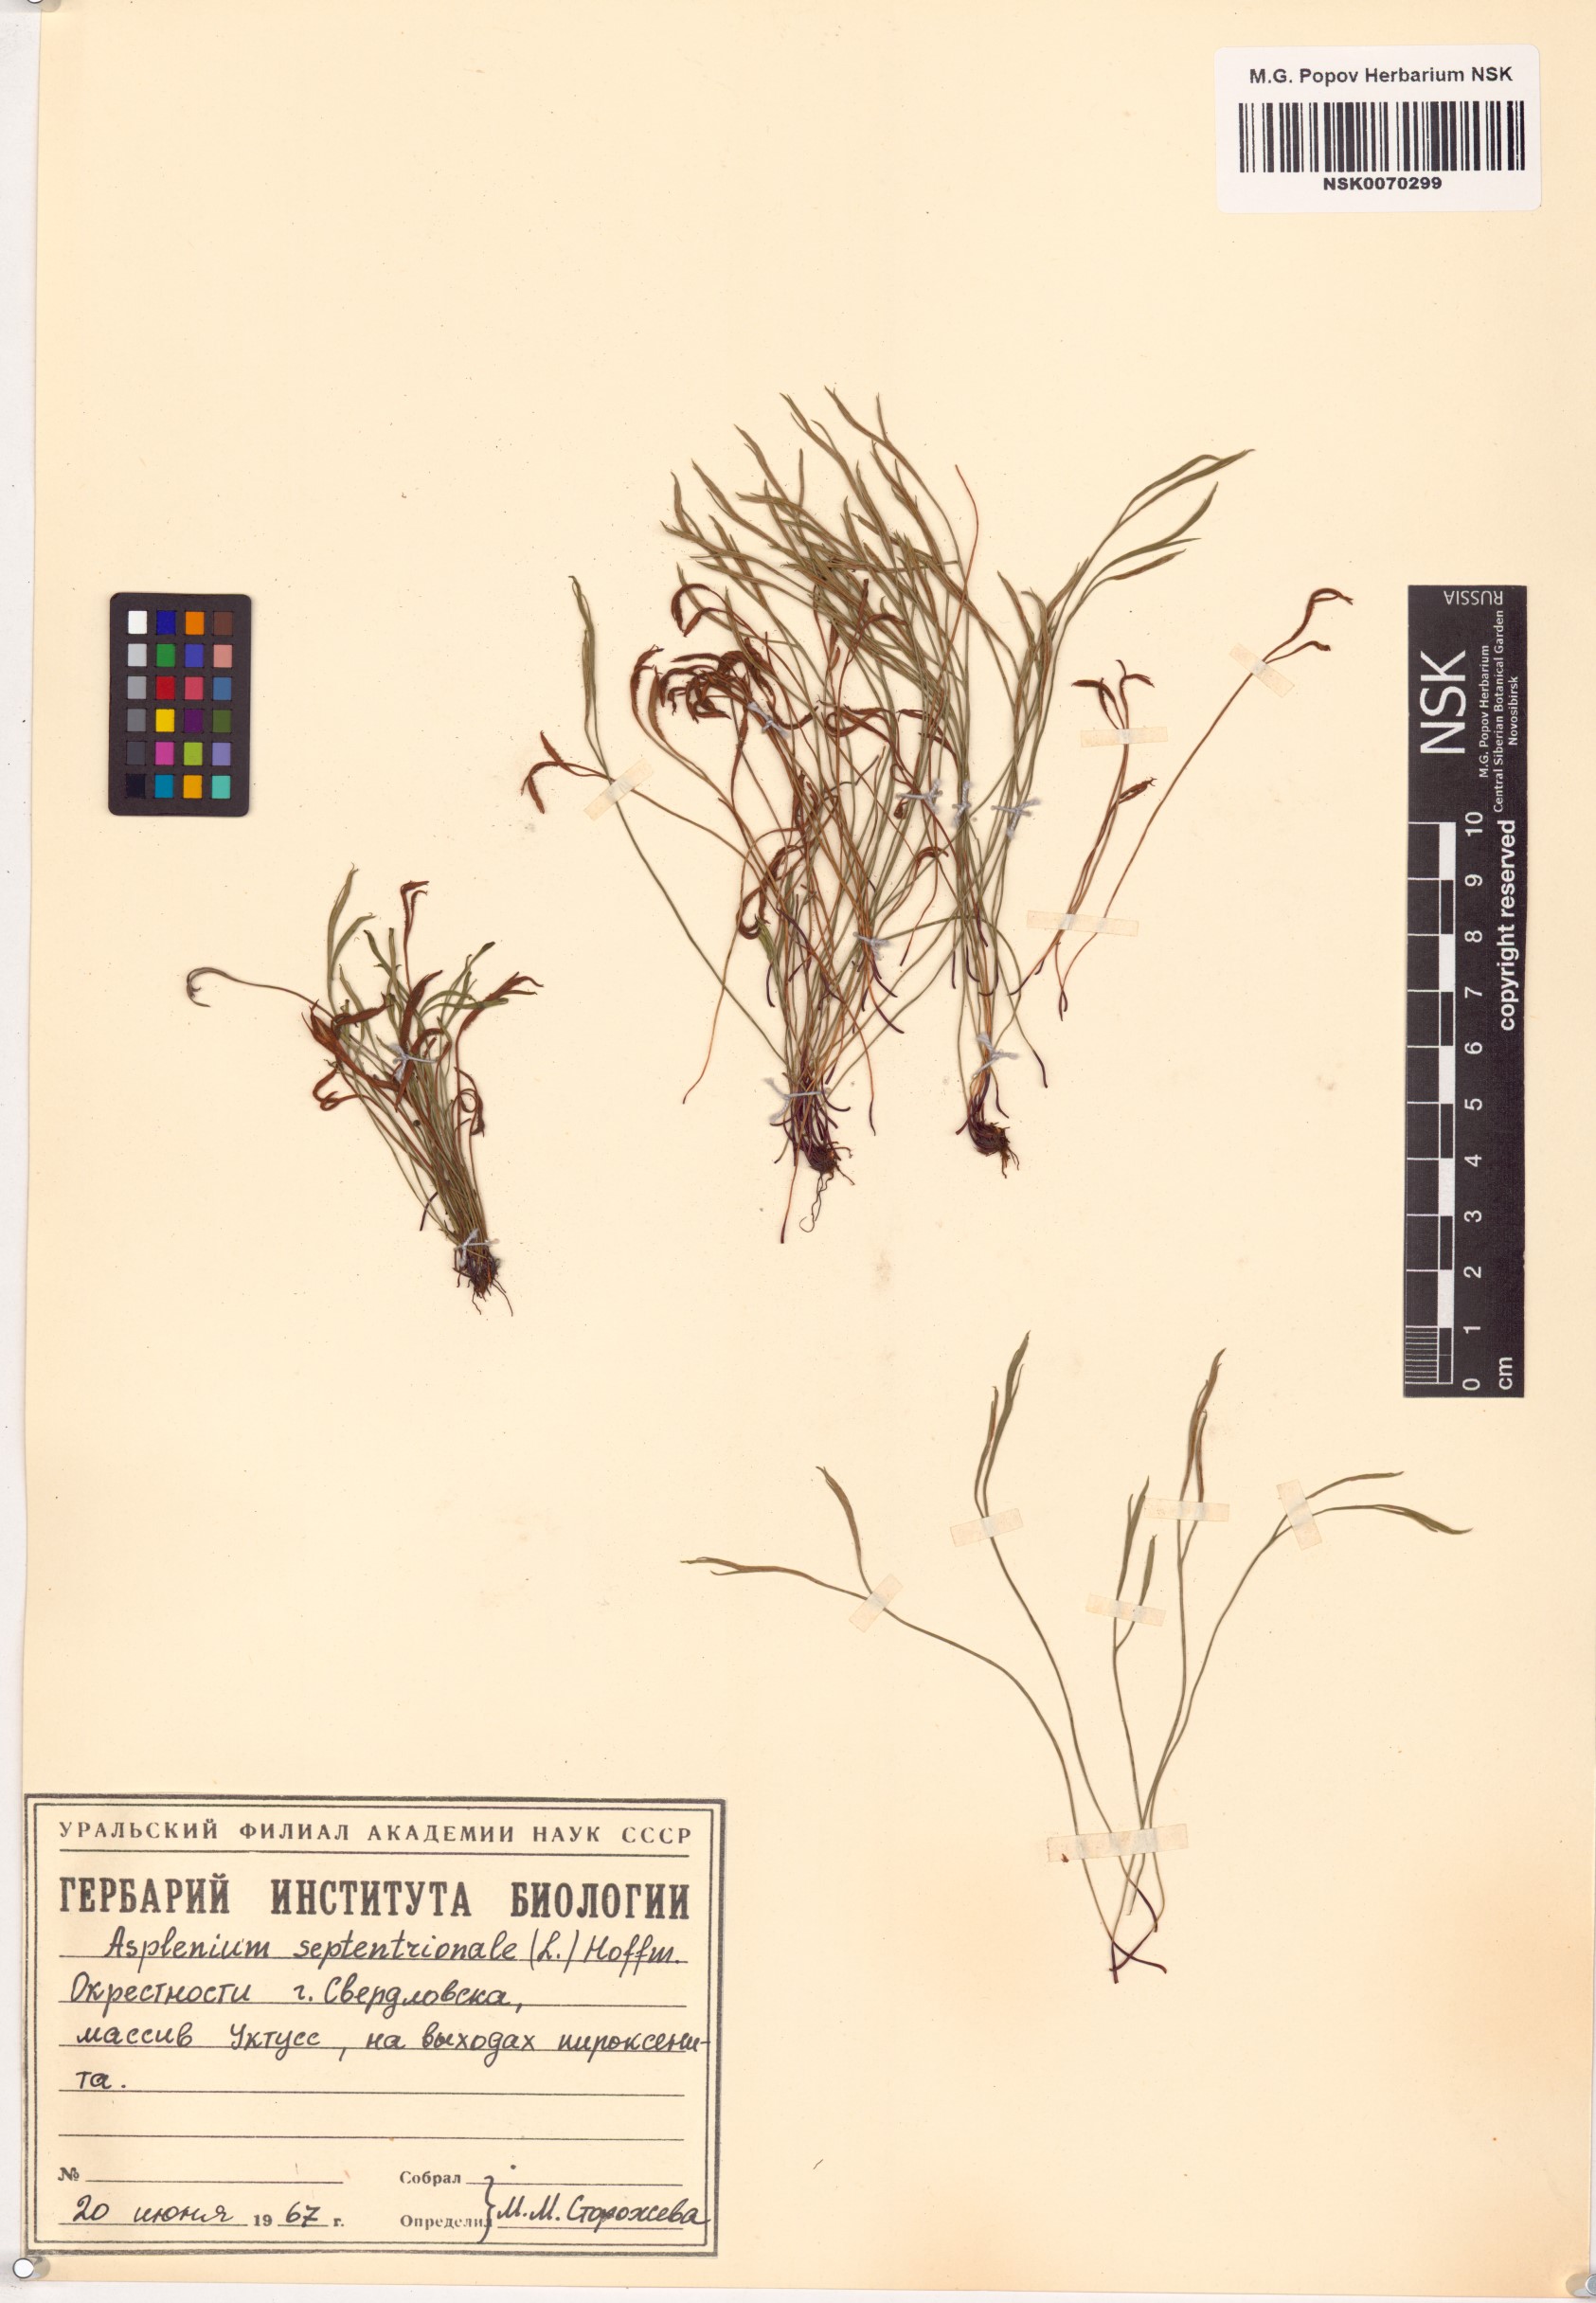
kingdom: Plantae
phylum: Tracheophyta
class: Polypodiopsida
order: Polypodiales
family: Aspleniaceae
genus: Asplenium
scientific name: Asplenium septentrionale
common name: Forked spleenwort
